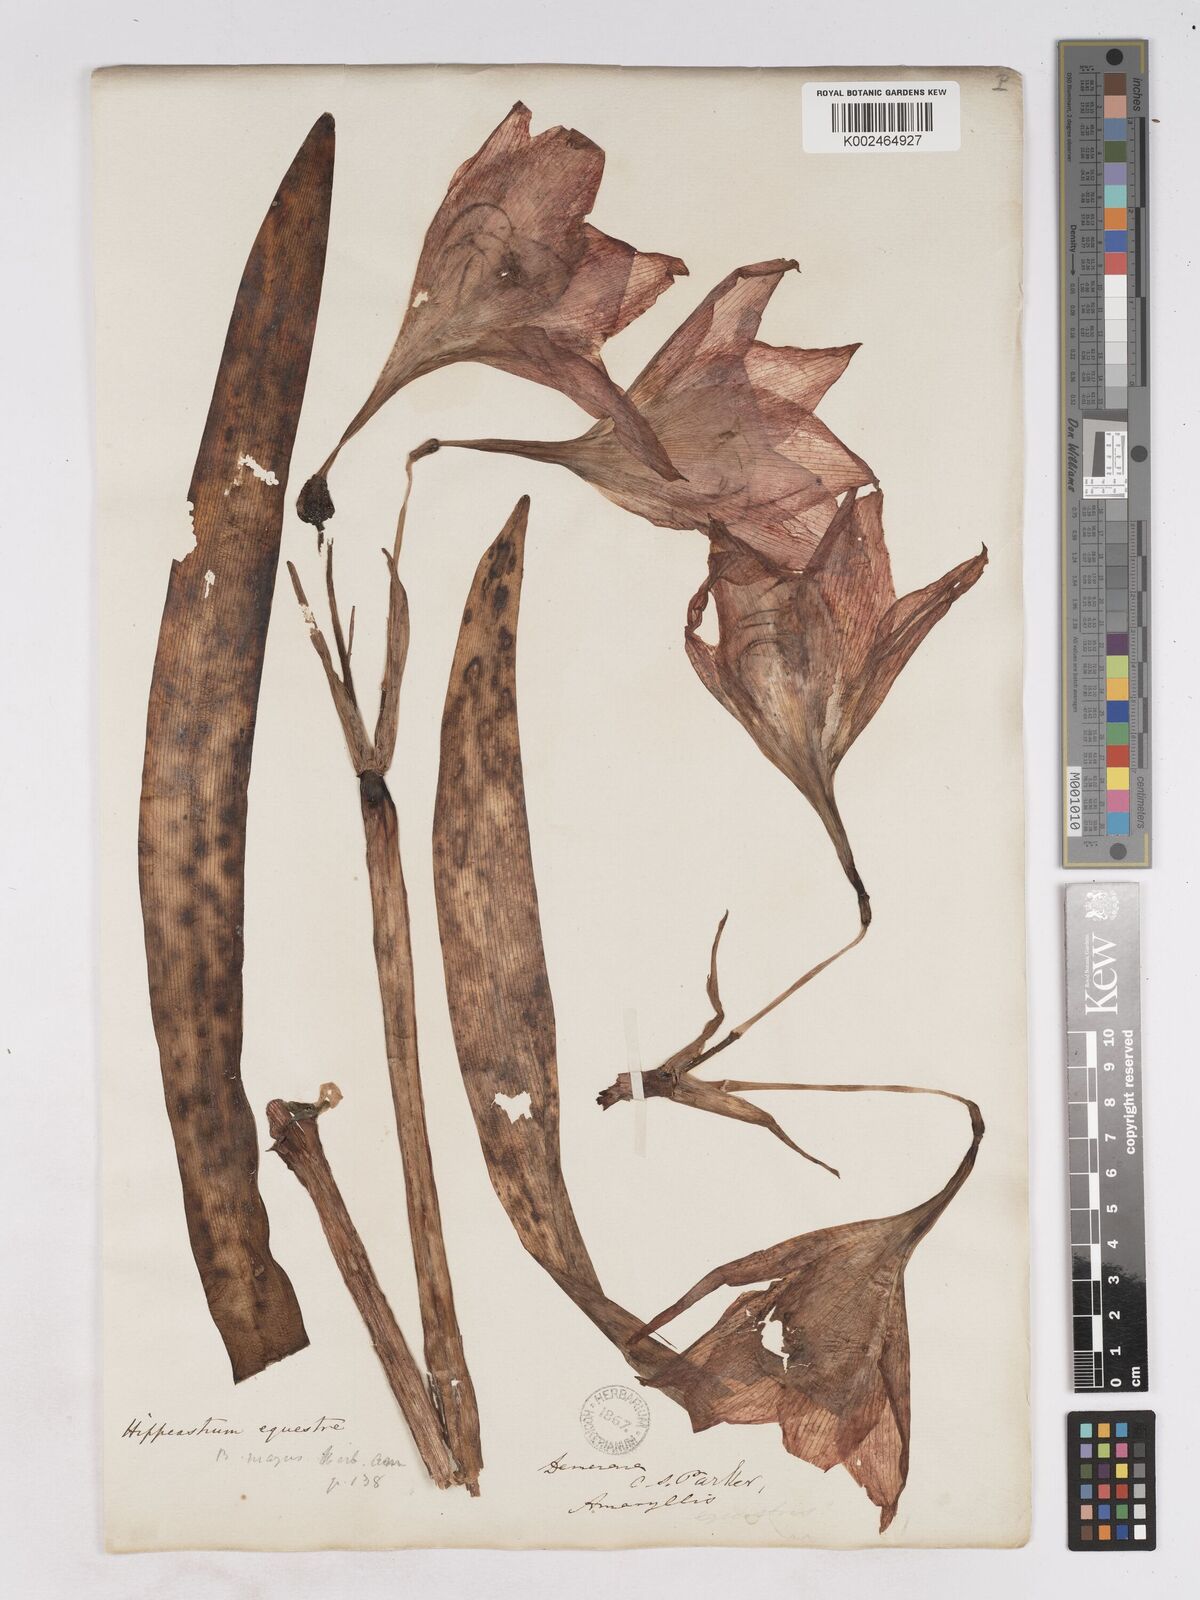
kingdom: Plantae
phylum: Tracheophyta
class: Liliopsida
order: Asparagales
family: Amaryllidaceae
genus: Hippeastrum
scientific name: Hippeastrum puniceum
